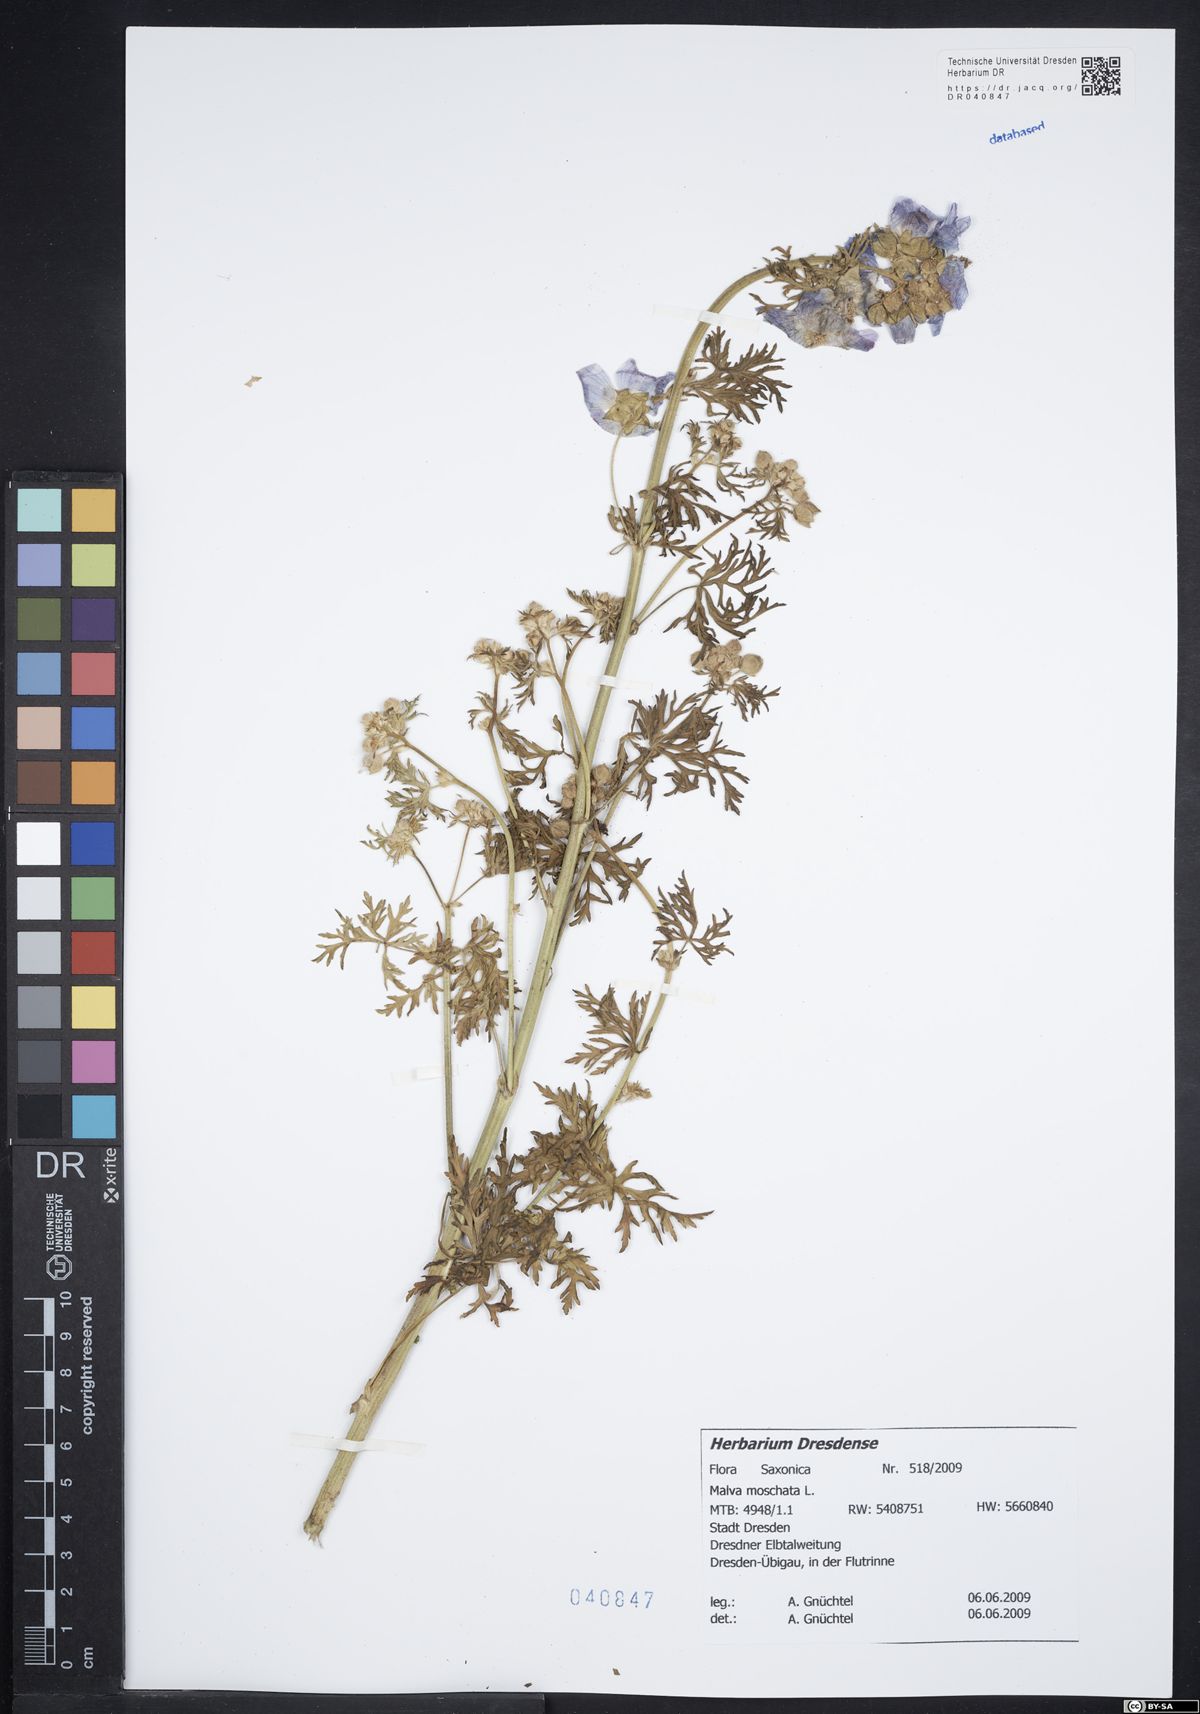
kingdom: Plantae
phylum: Tracheophyta
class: Magnoliopsida
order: Malvales
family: Malvaceae
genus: Malva
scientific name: Malva moschata
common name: Musk mallow
